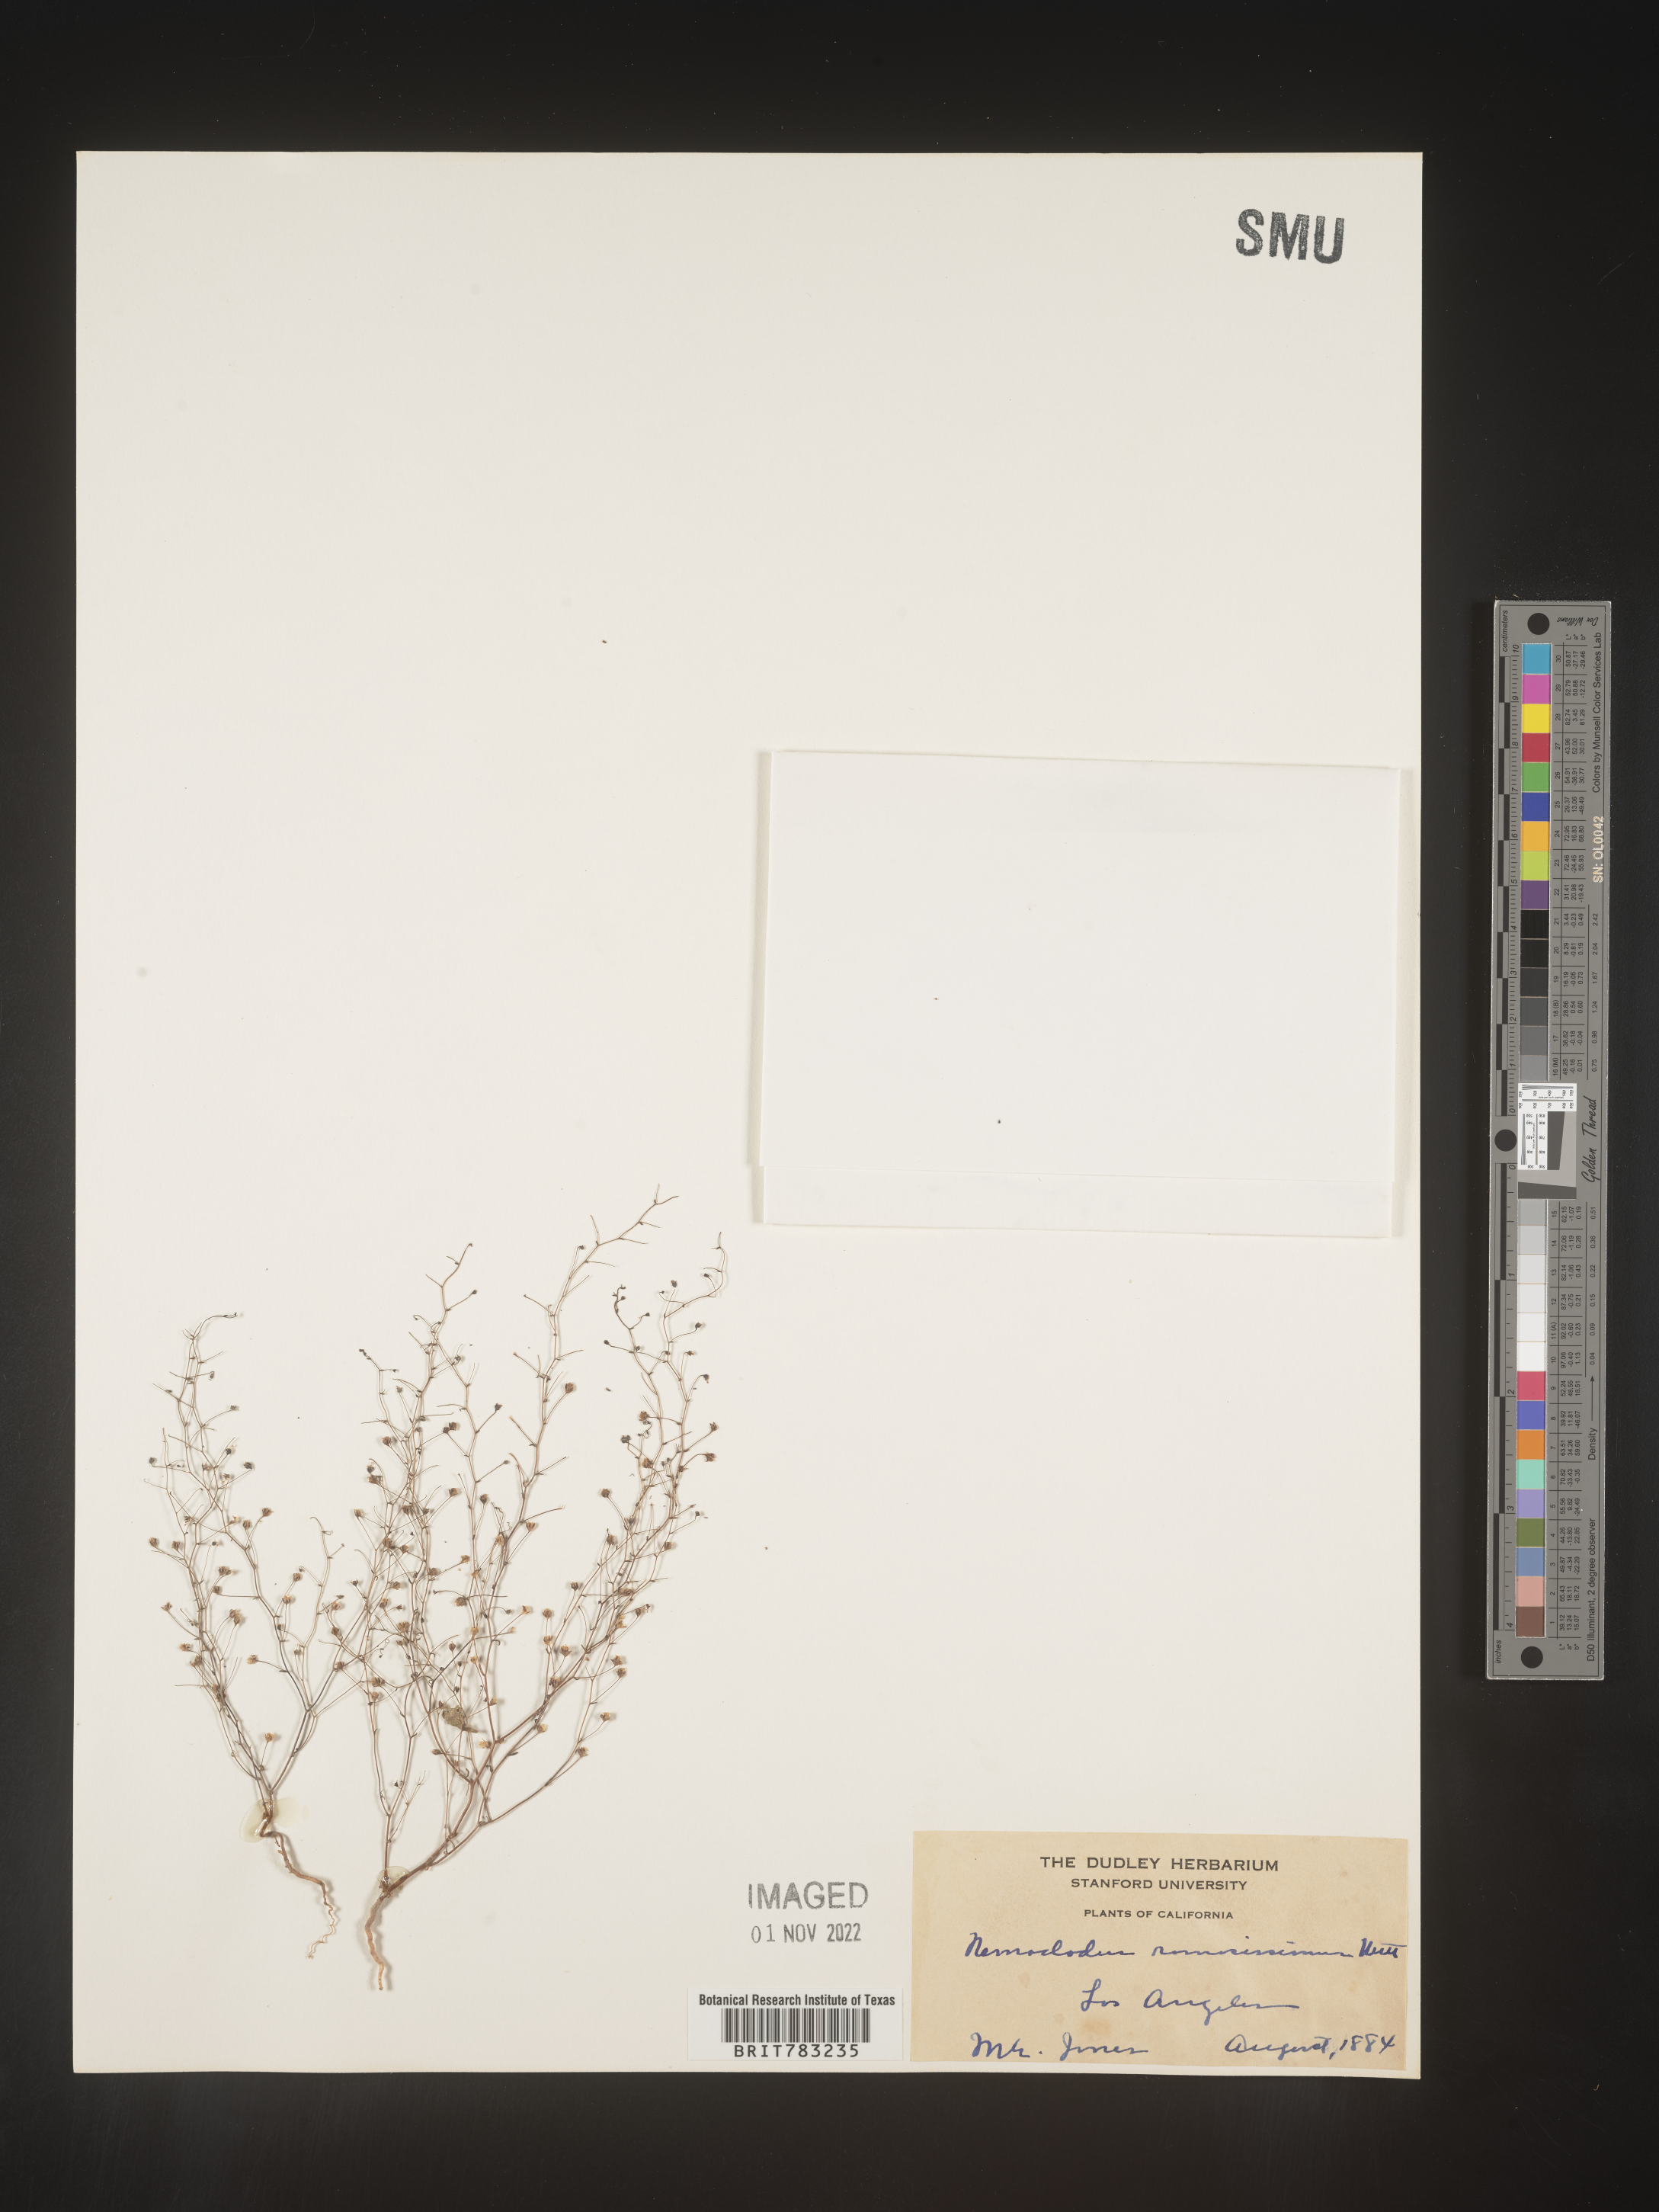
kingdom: Plantae
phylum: Tracheophyta
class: Magnoliopsida
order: Asterales
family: Campanulaceae
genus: Nemacladus
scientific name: Nemacladus
